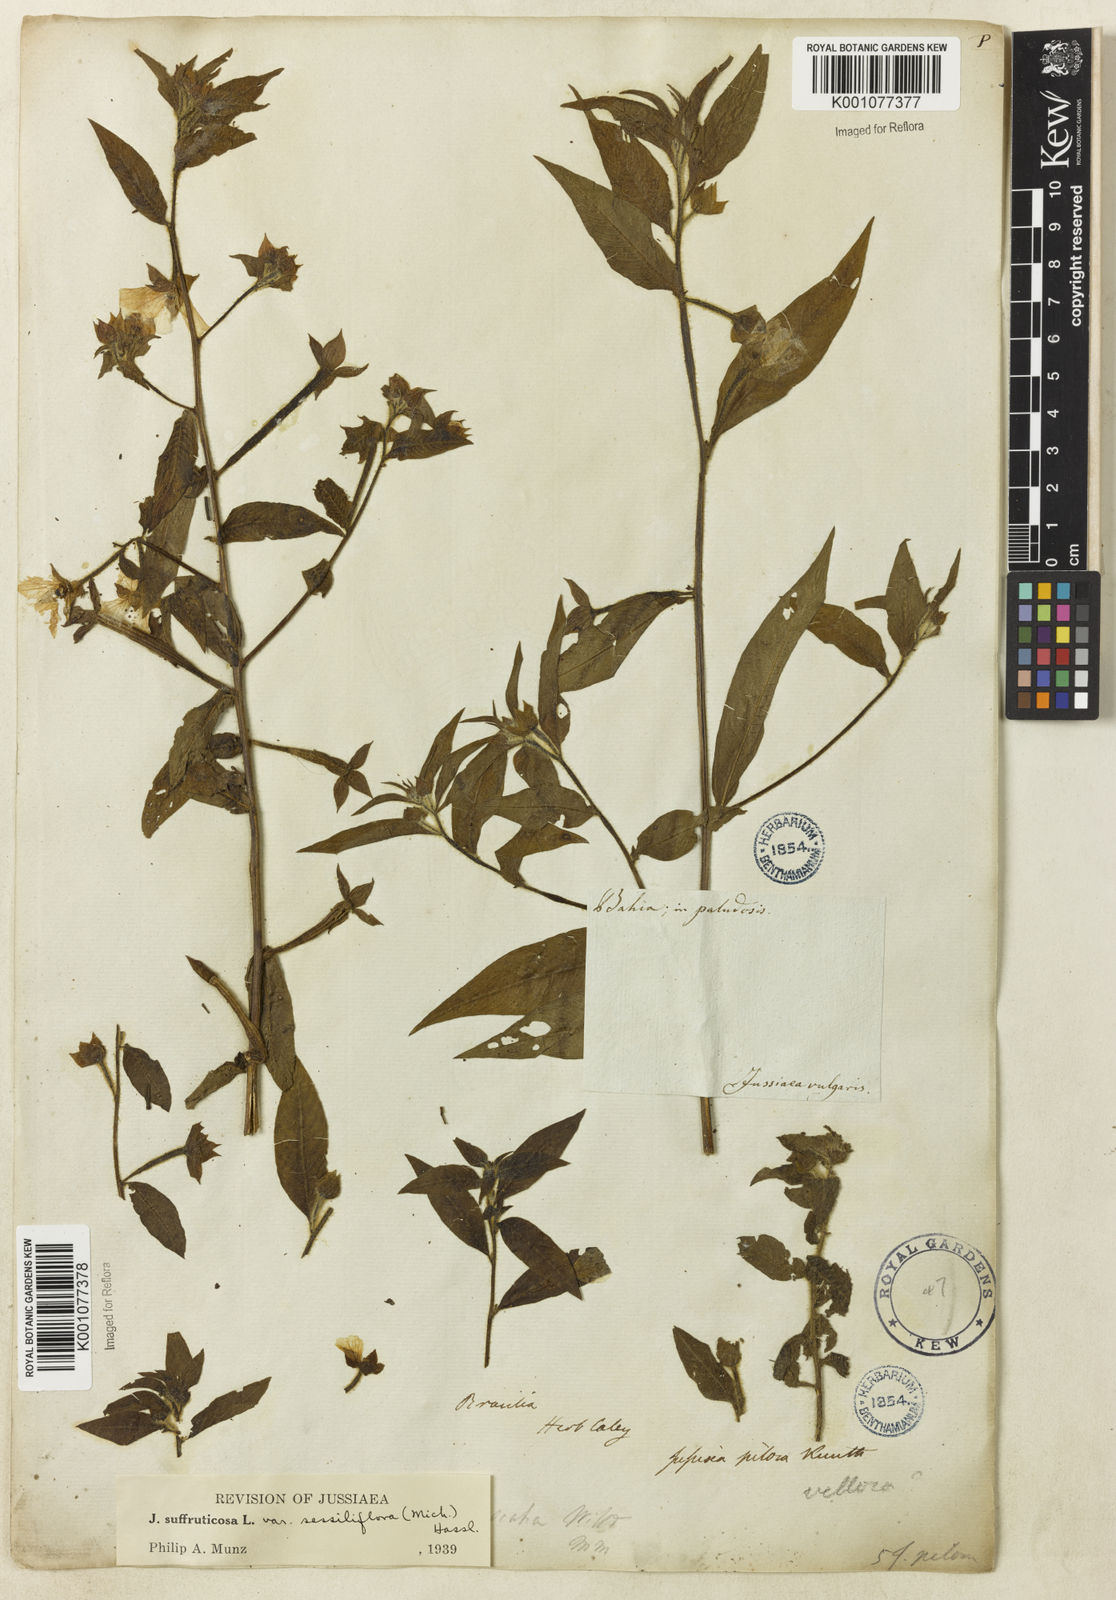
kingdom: Plantae
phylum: Tracheophyta
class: Magnoliopsida
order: Myrtales
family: Onagraceae
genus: Ludwigia
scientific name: Ludwigia octovalvis
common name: Water-primrose
